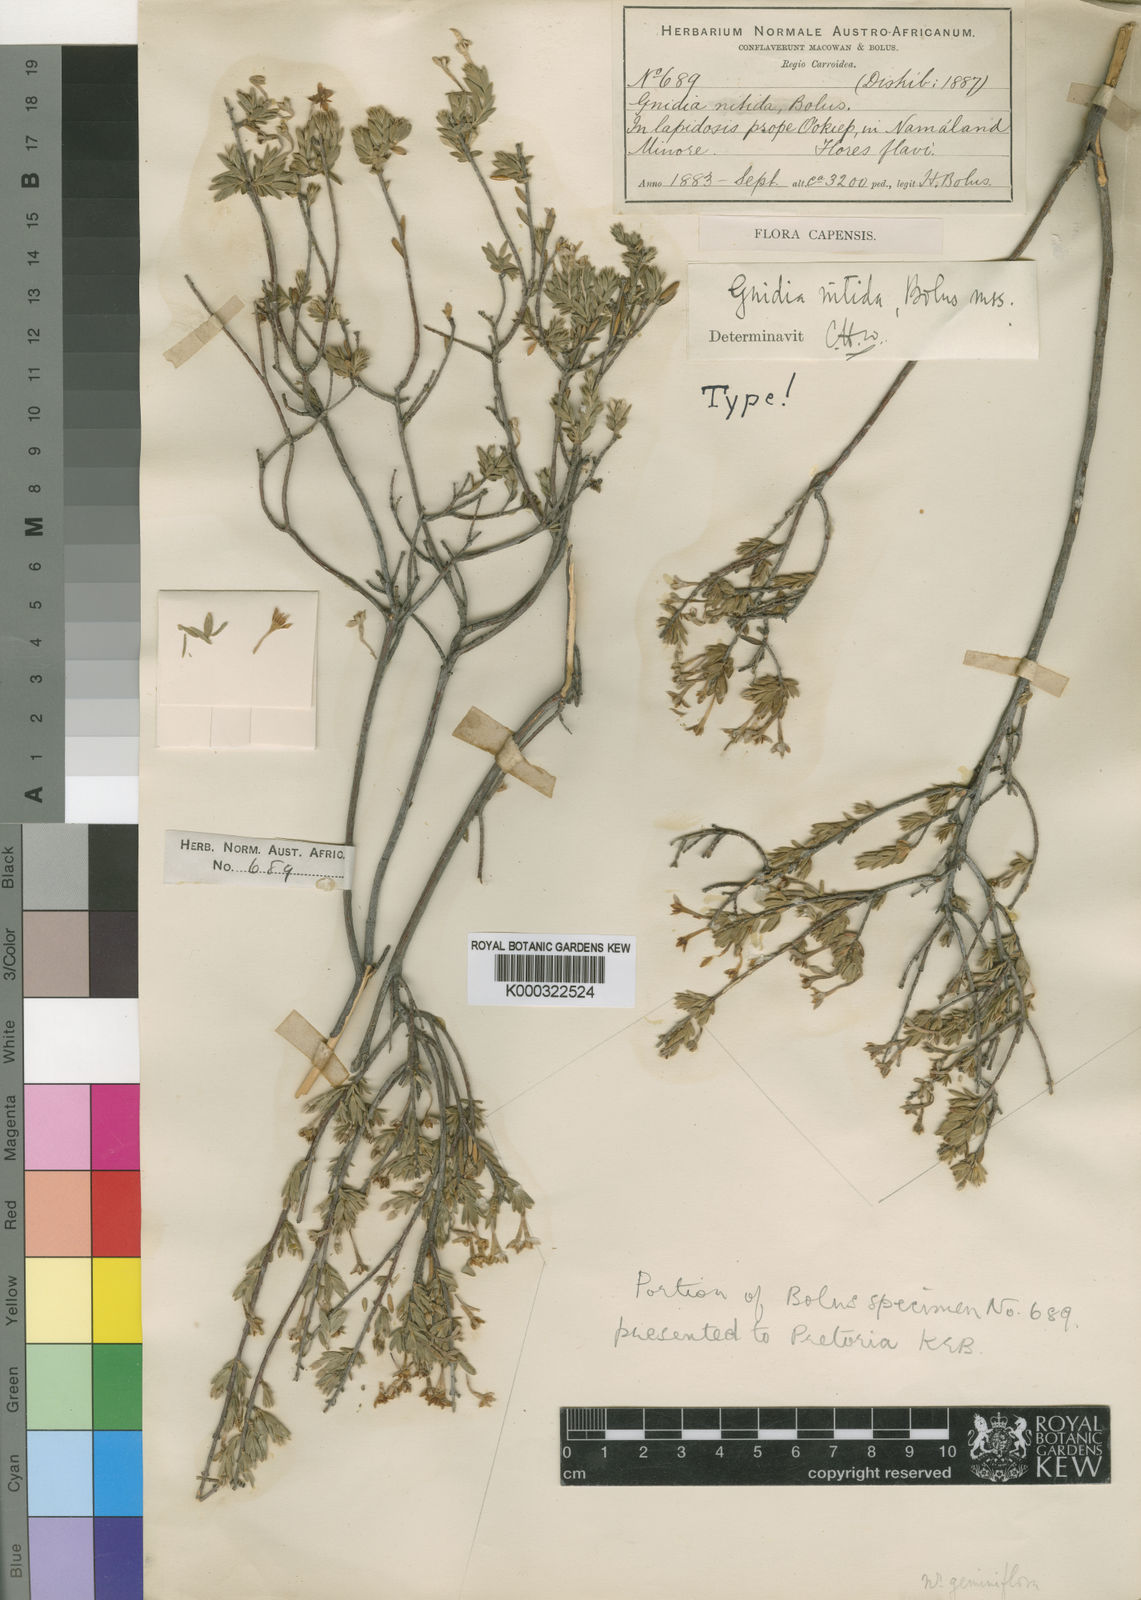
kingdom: Plantae
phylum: Tracheophyta
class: Magnoliopsida
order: Malvales
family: Thymelaeaceae
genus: Gnidia
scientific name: Gnidia nitida
